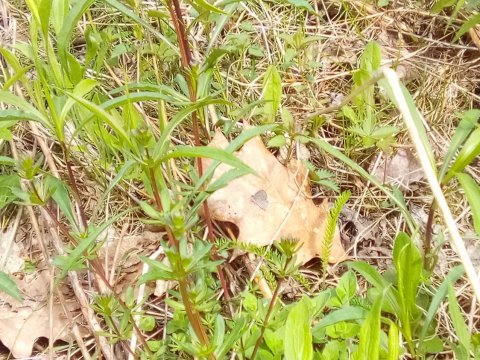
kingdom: Animalia
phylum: Arthropoda
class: Insecta
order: Lepidoptera
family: Lycaenidae
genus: Celastrina
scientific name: Celastrina lucia
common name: Northern Spring Azure
